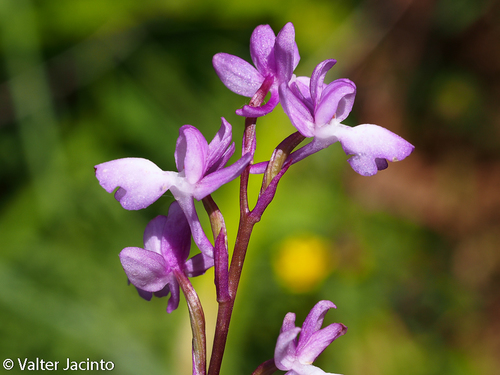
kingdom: Plantae
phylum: Tracheophyta
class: Liliopsida
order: Asparagales
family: Orchidaceae
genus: Orchis
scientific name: Orchis mascula
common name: Early-purple orchid
